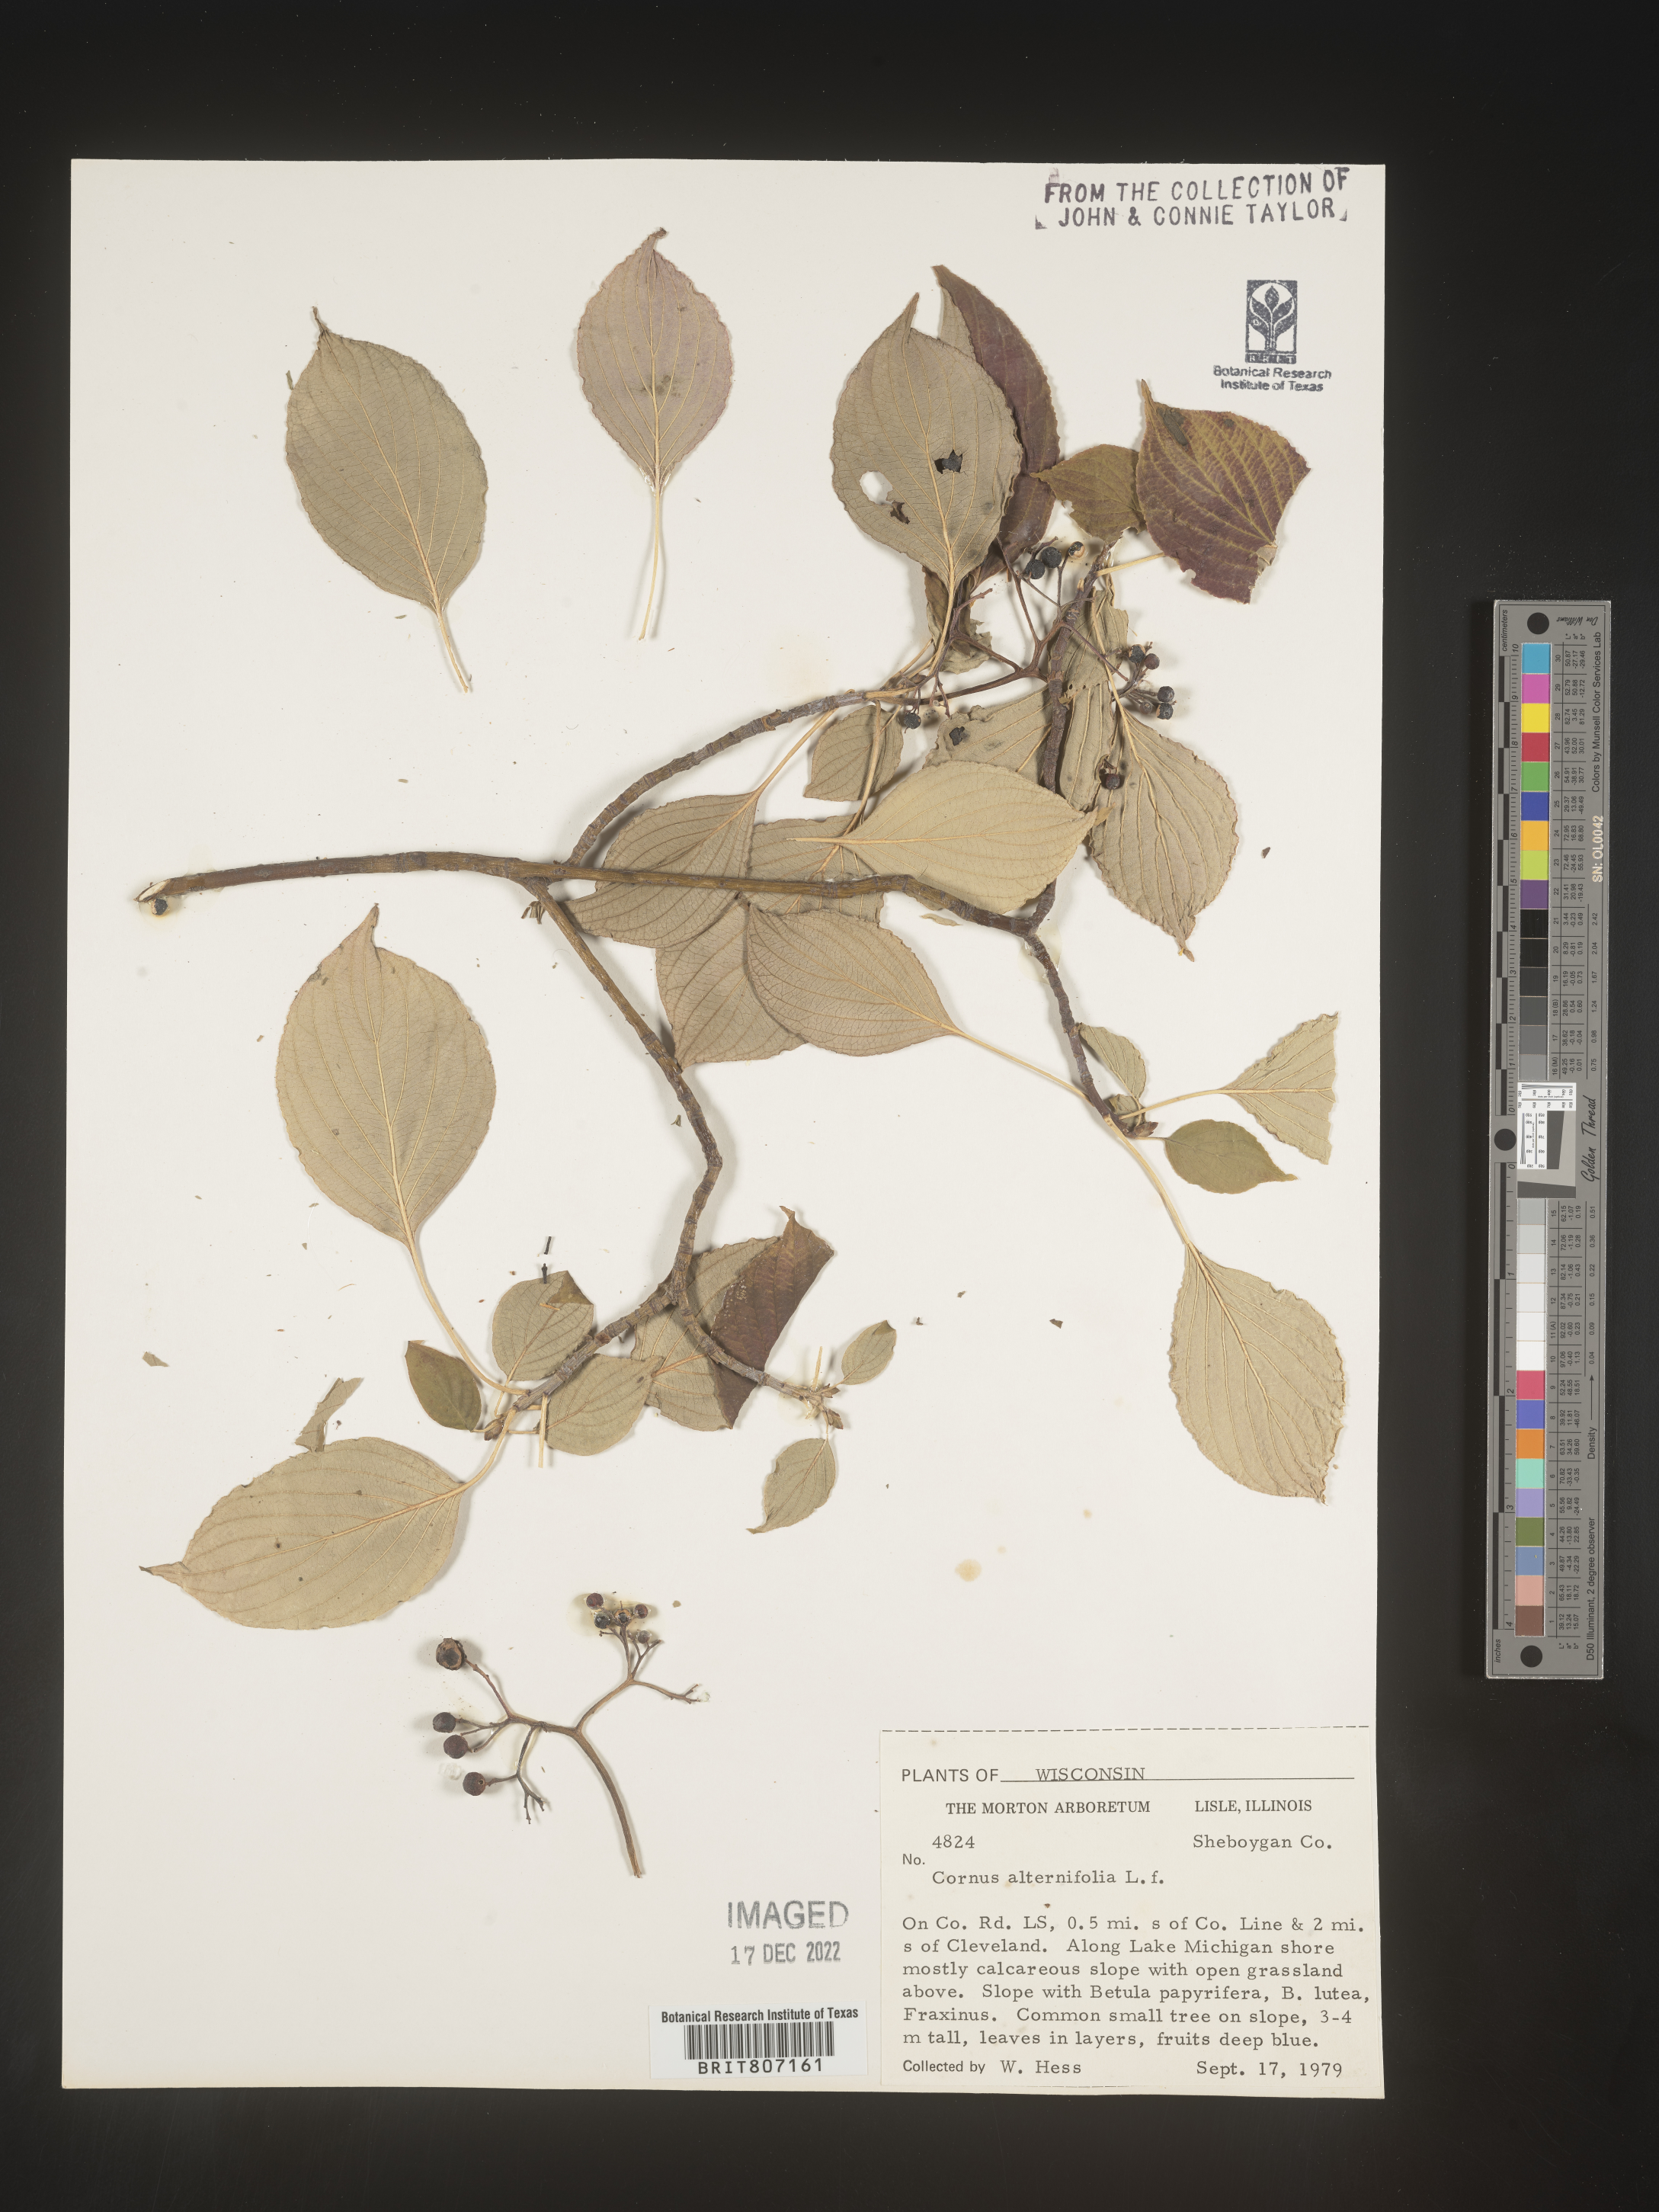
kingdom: Plantae
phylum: Tracheophyta
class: Magnoliopsida
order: Cornales
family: Cornaceae
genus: Cornus
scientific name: Cornus alternifolia
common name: Pagoda dogwood
